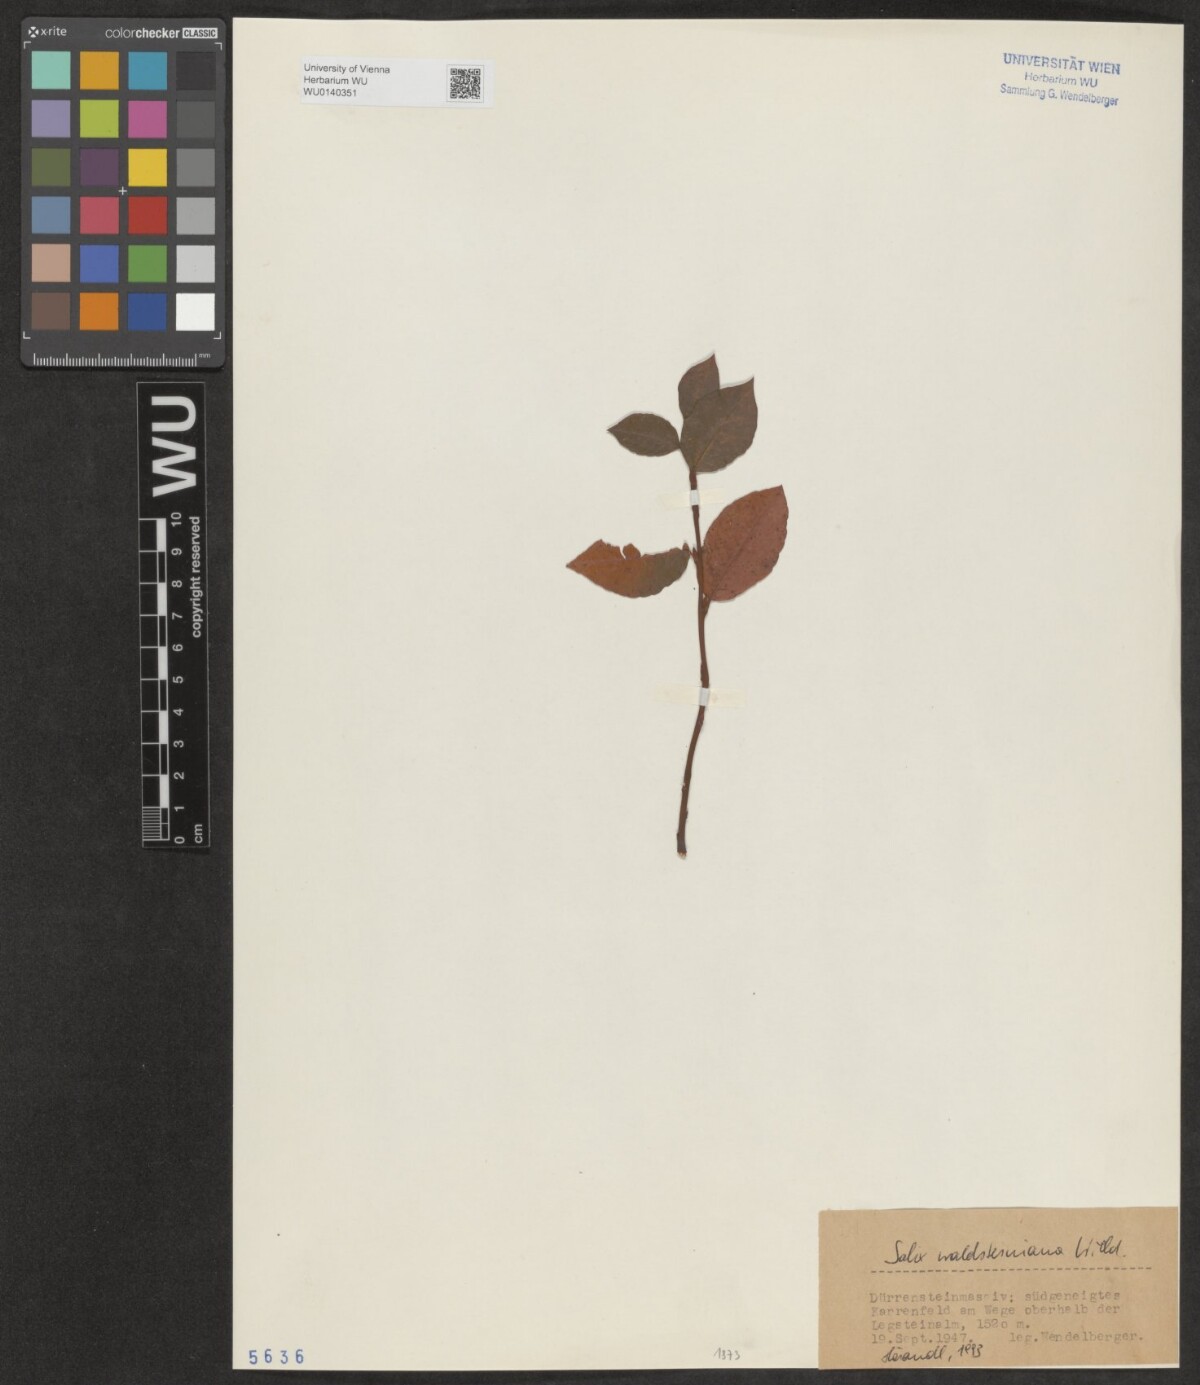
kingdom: Plantae
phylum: Tracheophyta
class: Magnoliopsida
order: Malpighiales
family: Salicaceae
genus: Salix
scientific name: Salix waldsteiniana
